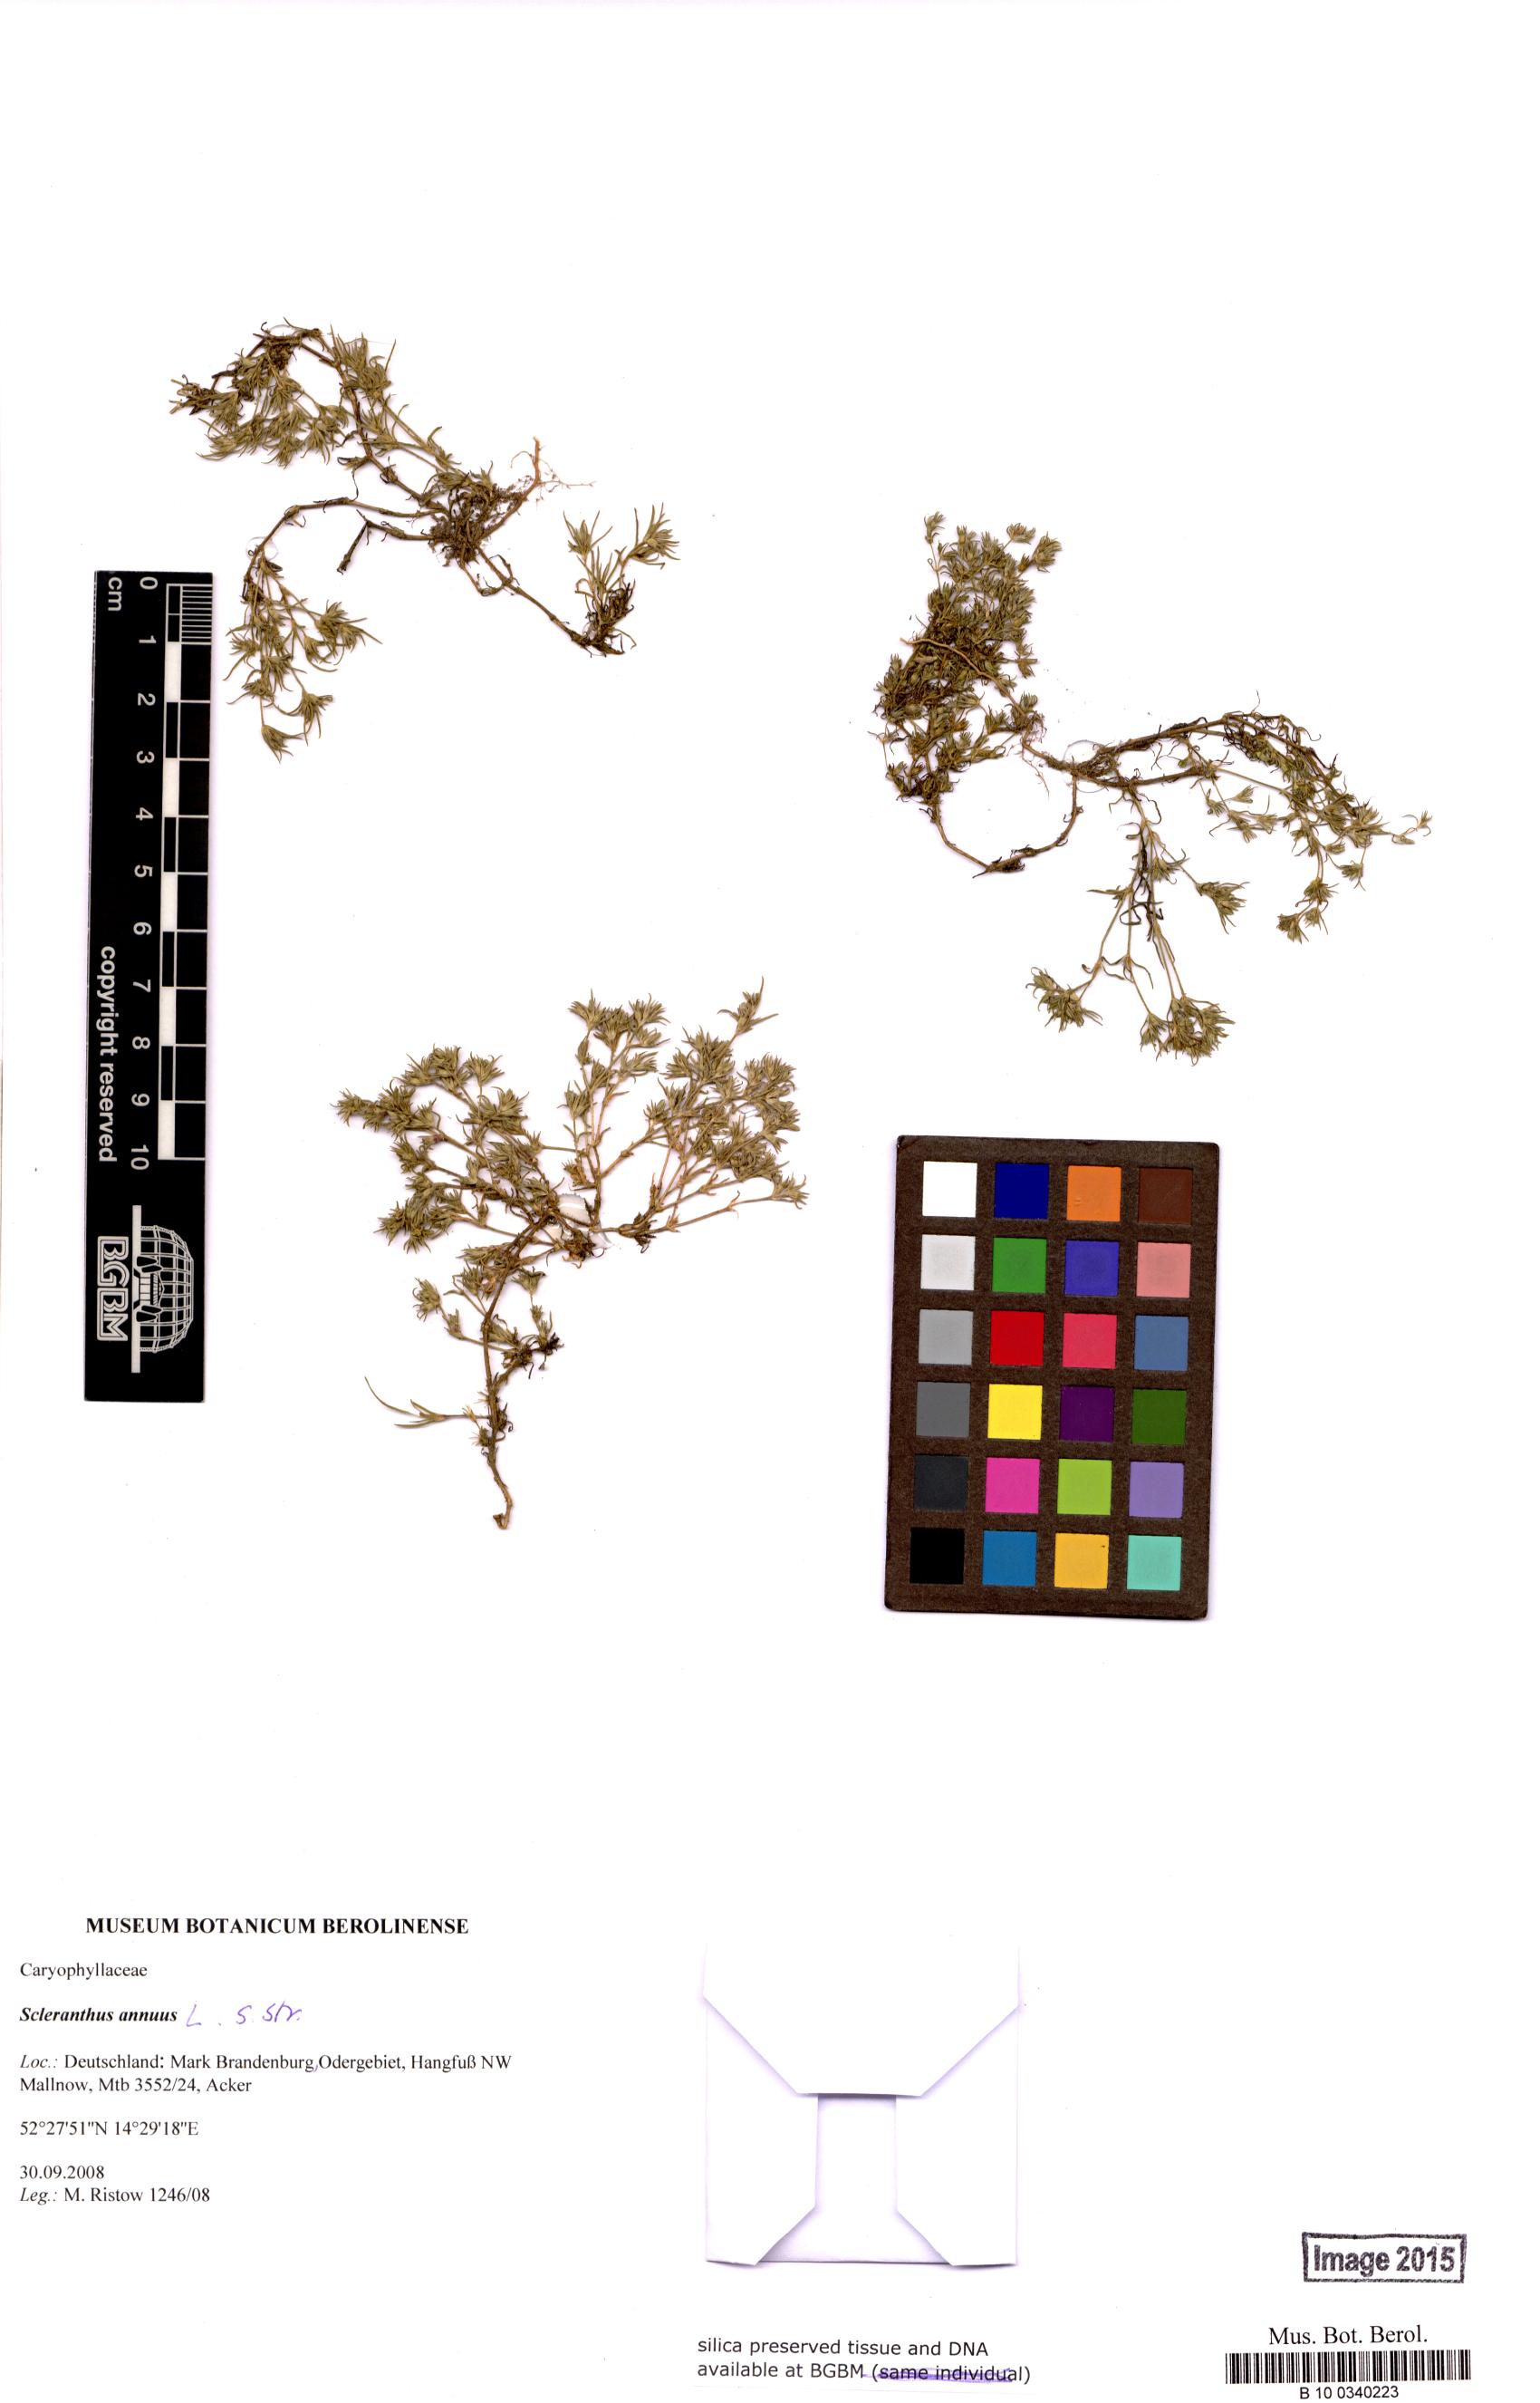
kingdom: Plantae
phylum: Tracheophyta
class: Magnoliopsida
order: Caryophyllales
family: Caryophyllaceae
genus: Scleranthus
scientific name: Scleranthus
